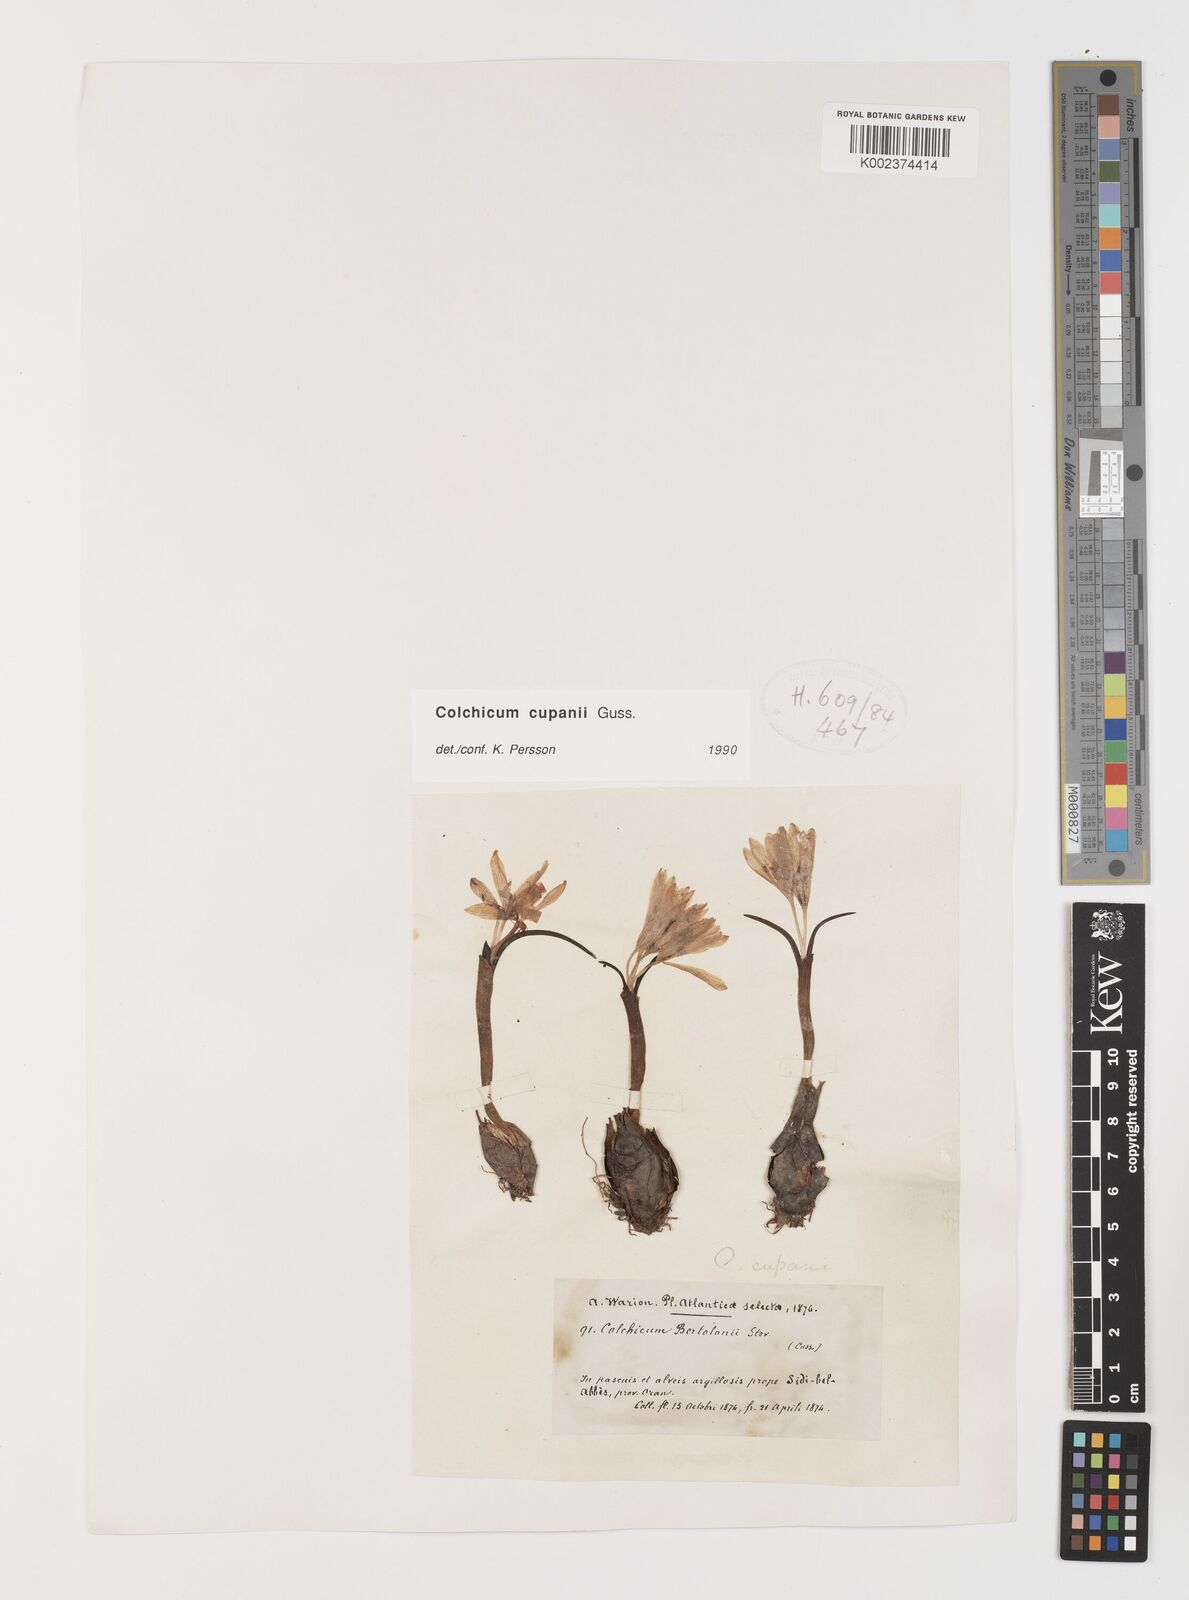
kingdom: Plantae
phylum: Tracheophyta
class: Liliopsida
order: Liliales
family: Colchicaceae
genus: Colchicum
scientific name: Colchicum cupanii
